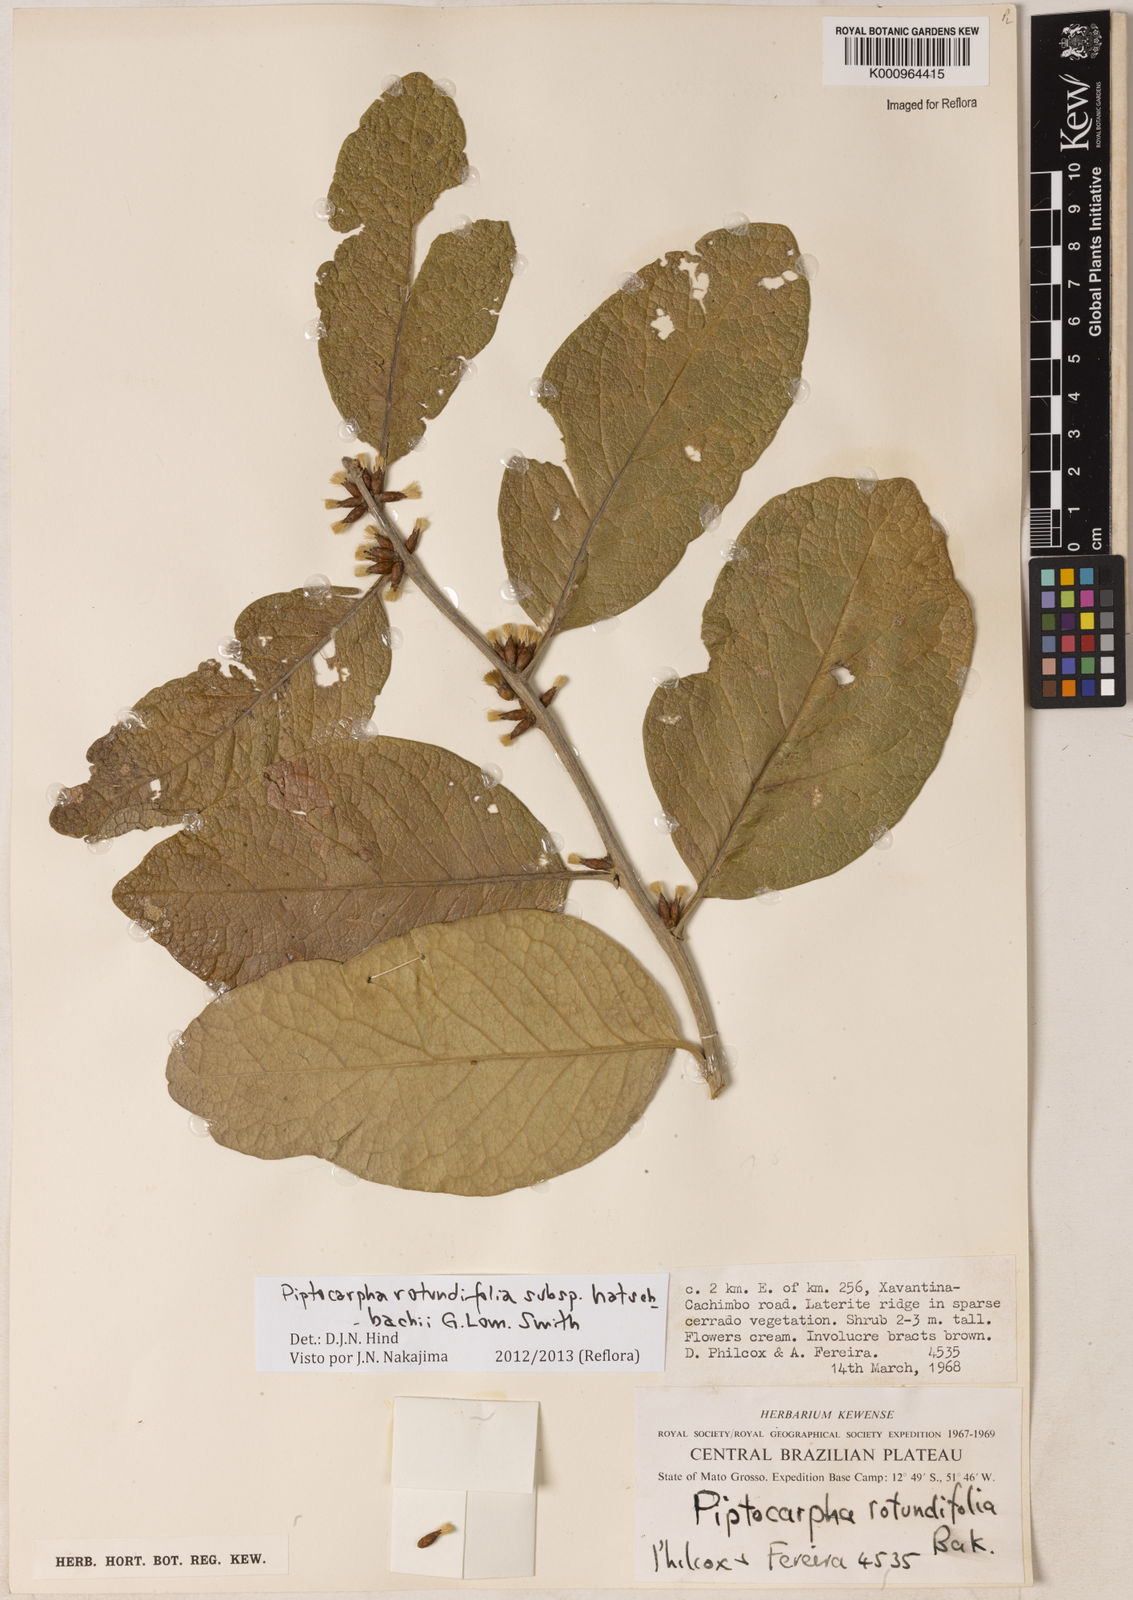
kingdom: Plantae
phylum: Tracheophyta
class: Magnoliopsida
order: Asterales
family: Asteraceae
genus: Piptocarpha
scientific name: Piptocarpha rotundifolia
